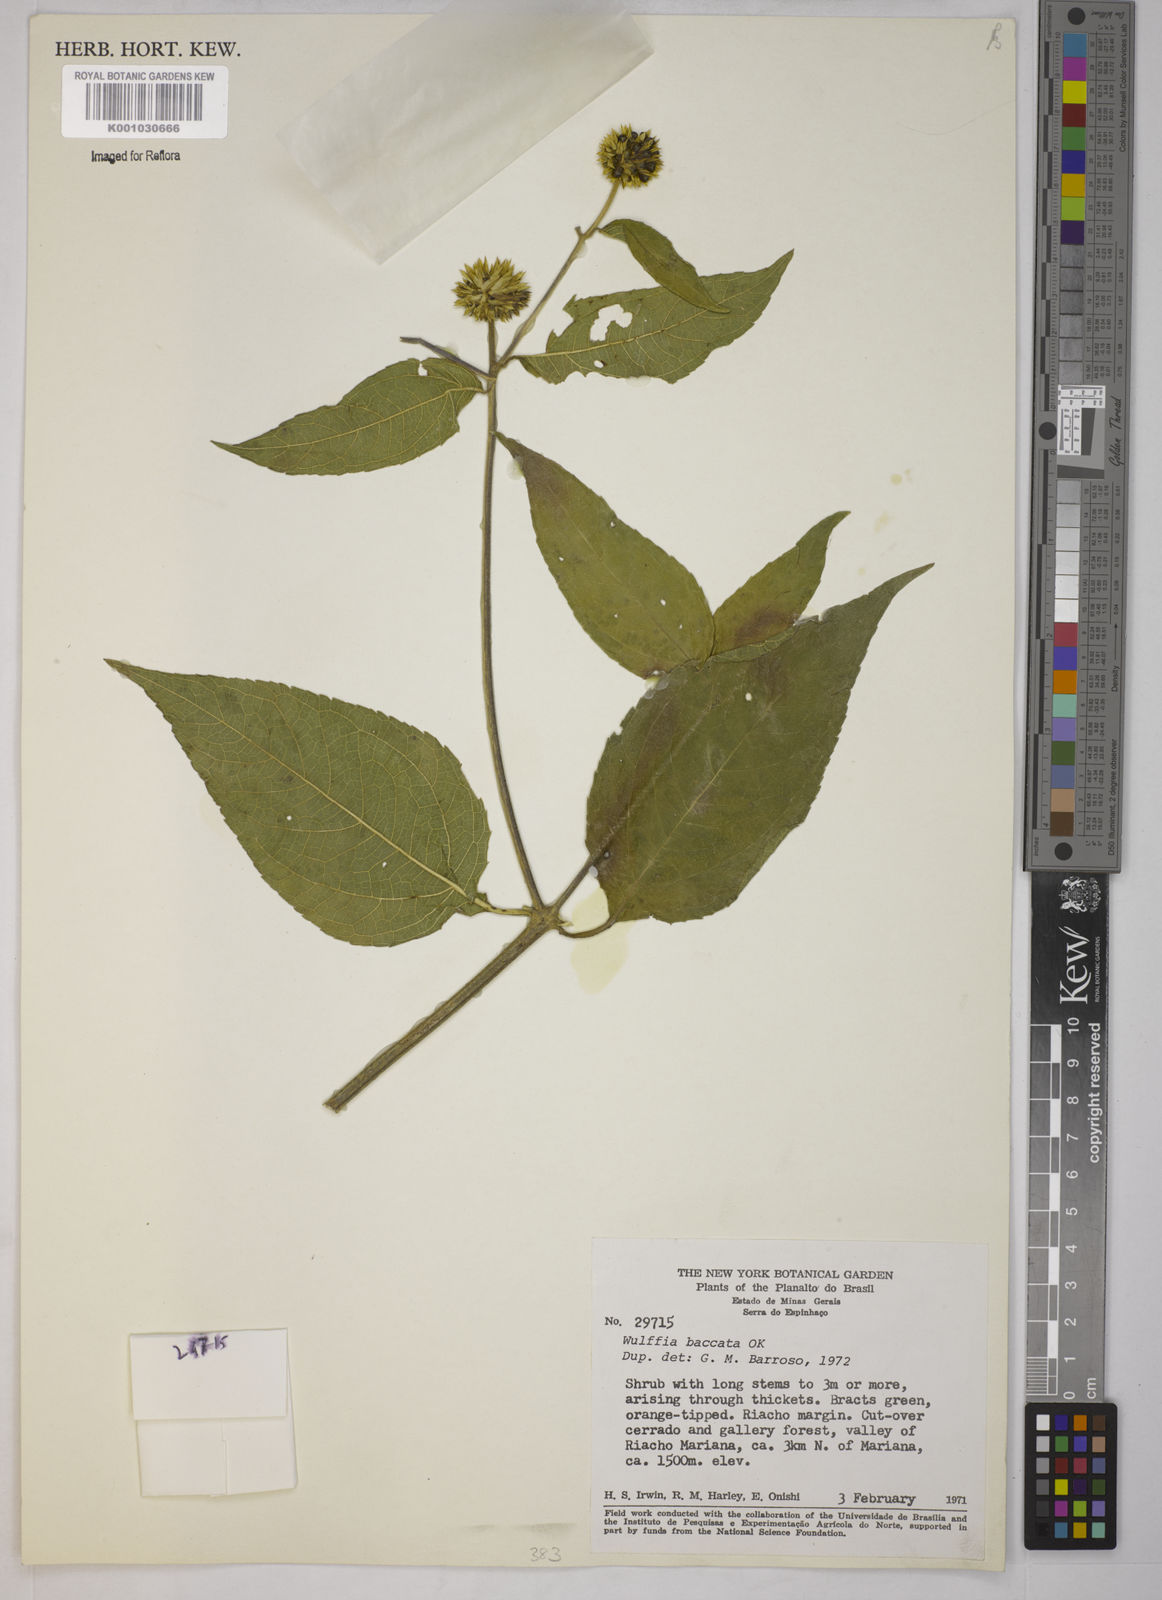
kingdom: Plantae
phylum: Tracheophyta
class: Magnoliopsida
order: Asterales
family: Asteraceae
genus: Tilesia
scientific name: Tilesia baccata
